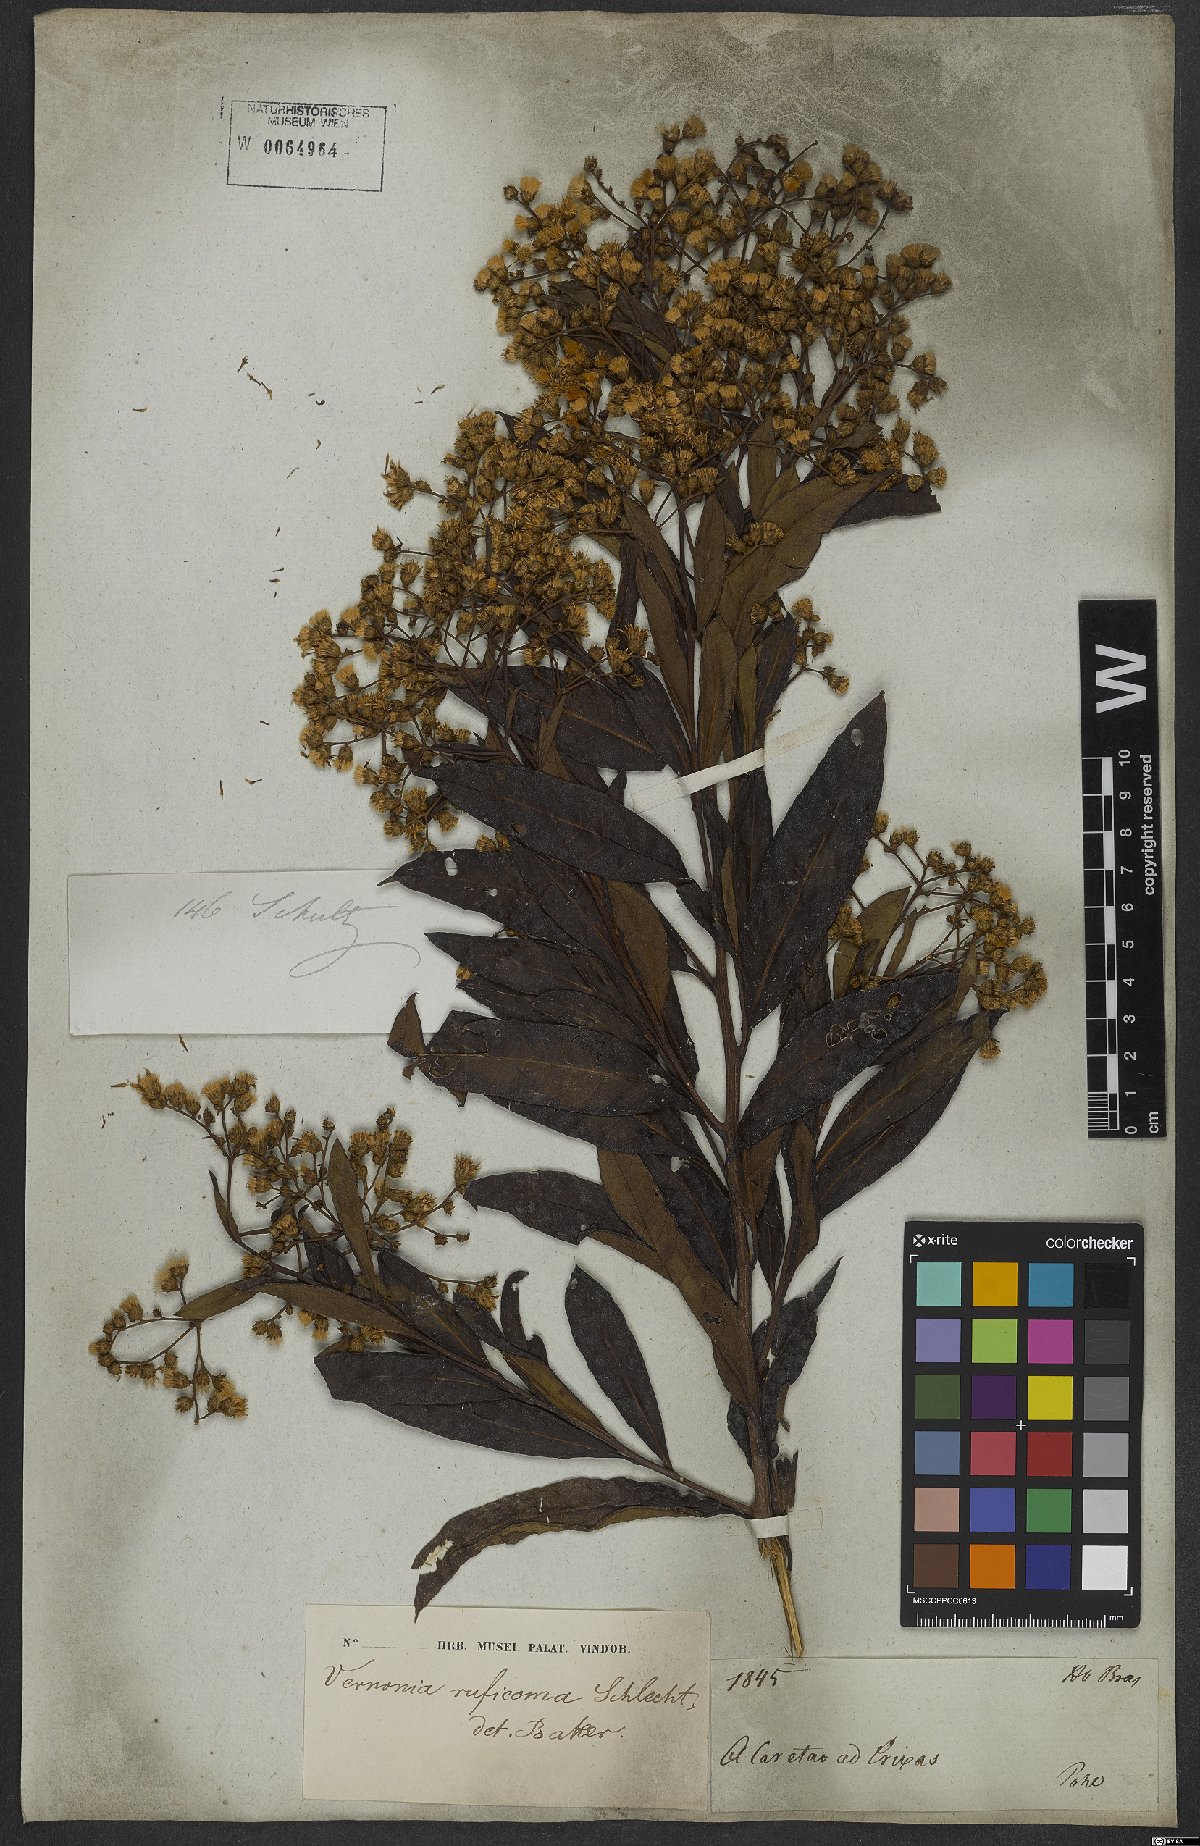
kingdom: Plantae
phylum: Tracheophyta
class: Magnoliopsida
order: Asterales
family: Asteraceae
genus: Vernonanthura
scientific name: Vernonanthura membranacea
